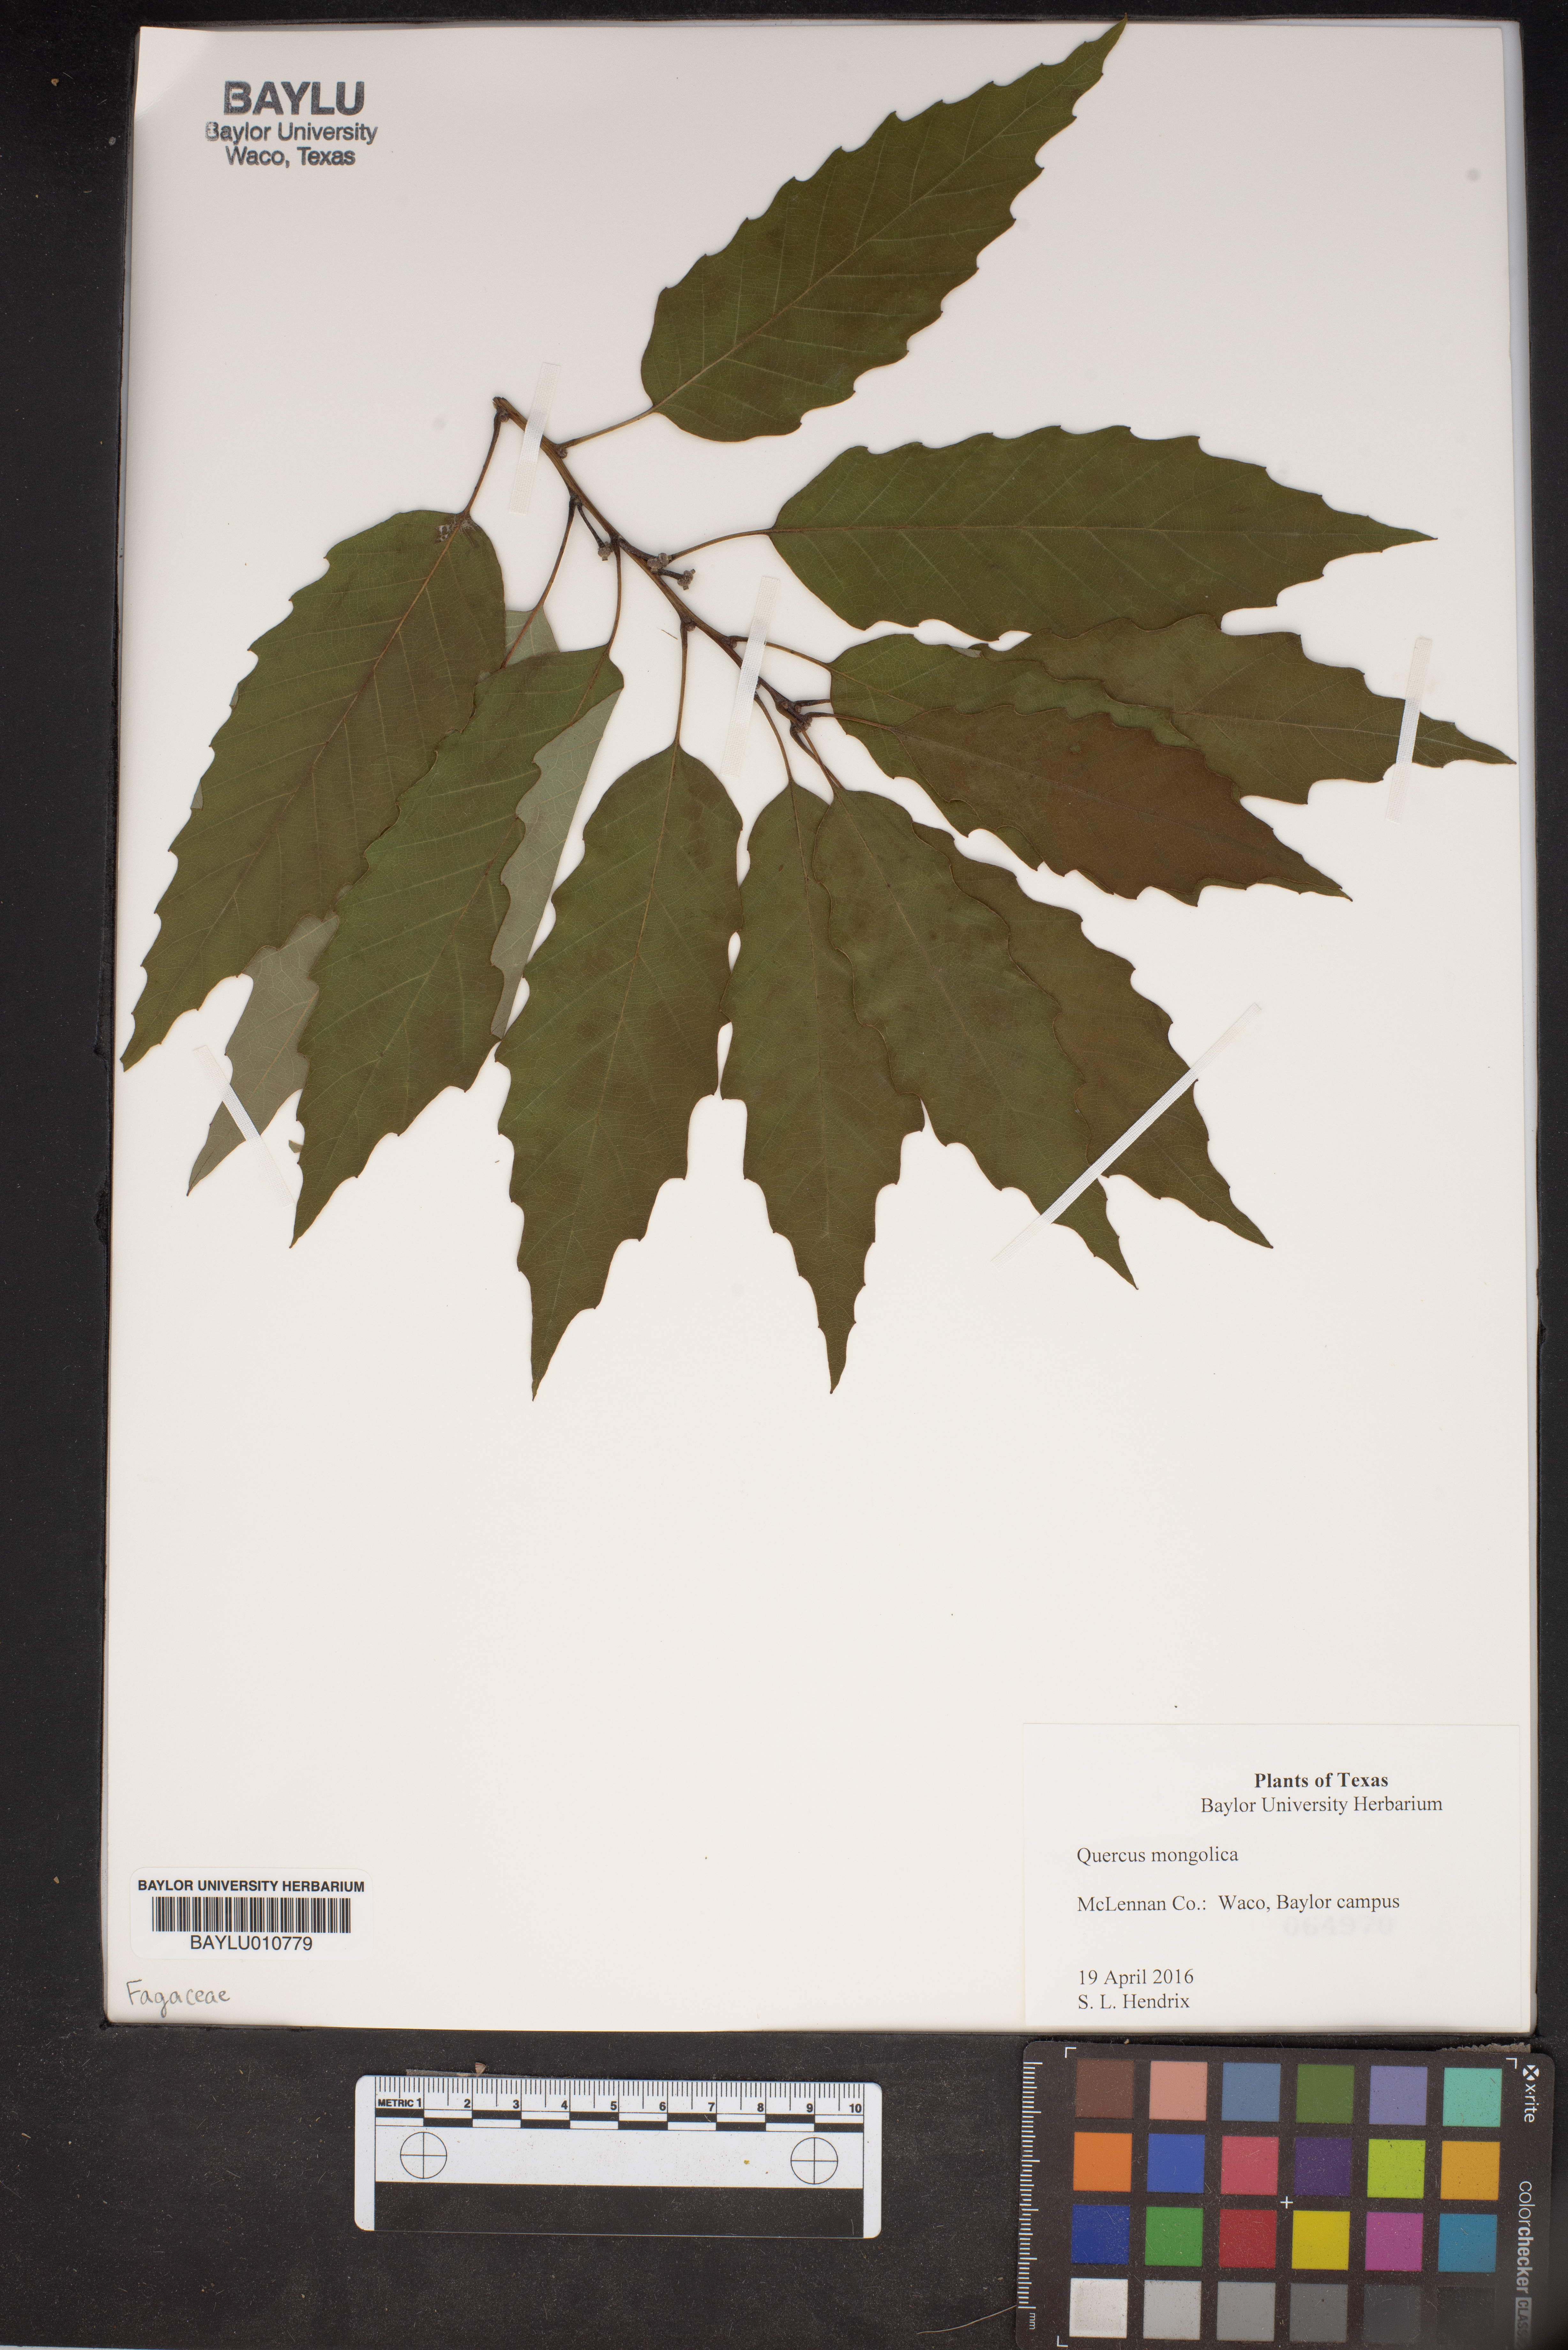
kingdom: Plantae
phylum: Tracheophyta
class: Magnoliopsida
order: Fagales
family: Fagaceae
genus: Quercus
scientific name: Quercus mongolica
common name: Mongolian oak
